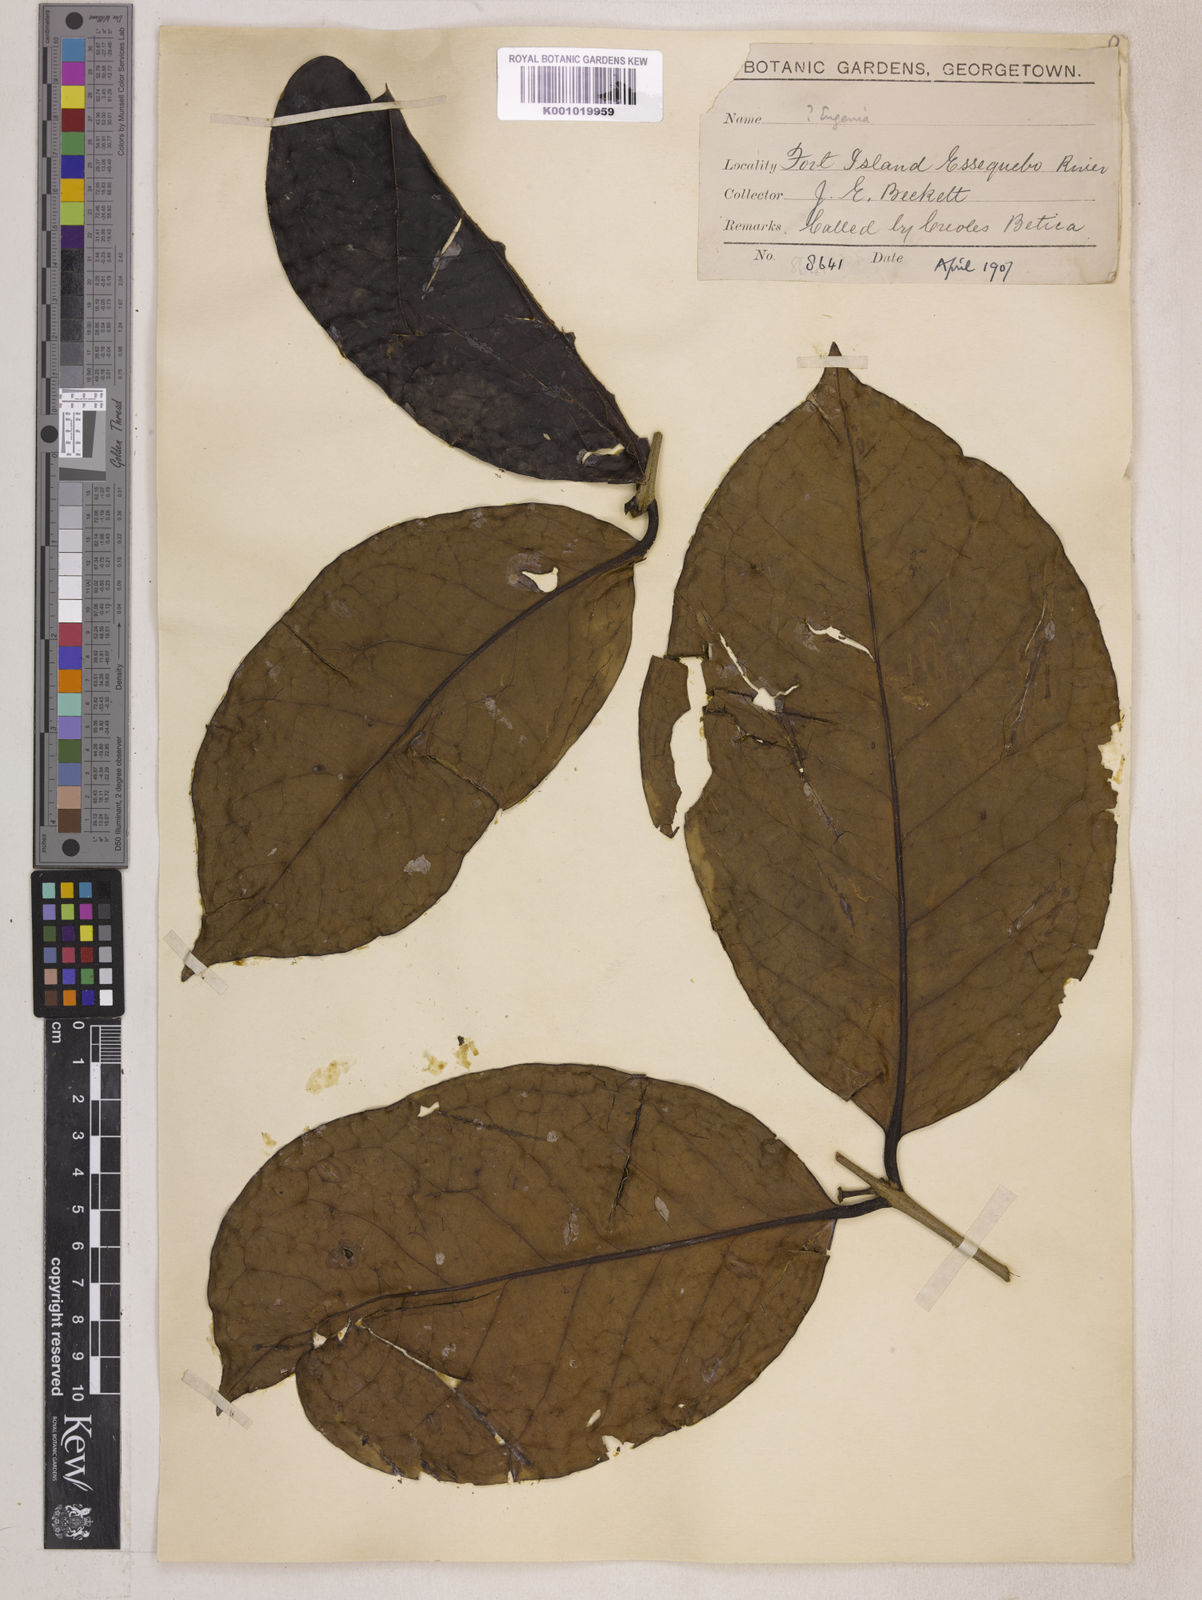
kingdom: Plantae
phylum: Tracheophyta
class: Magnoliopsida
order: Myrtales
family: Myrtaceae
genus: Eugenia
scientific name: Eugenia latifolia
